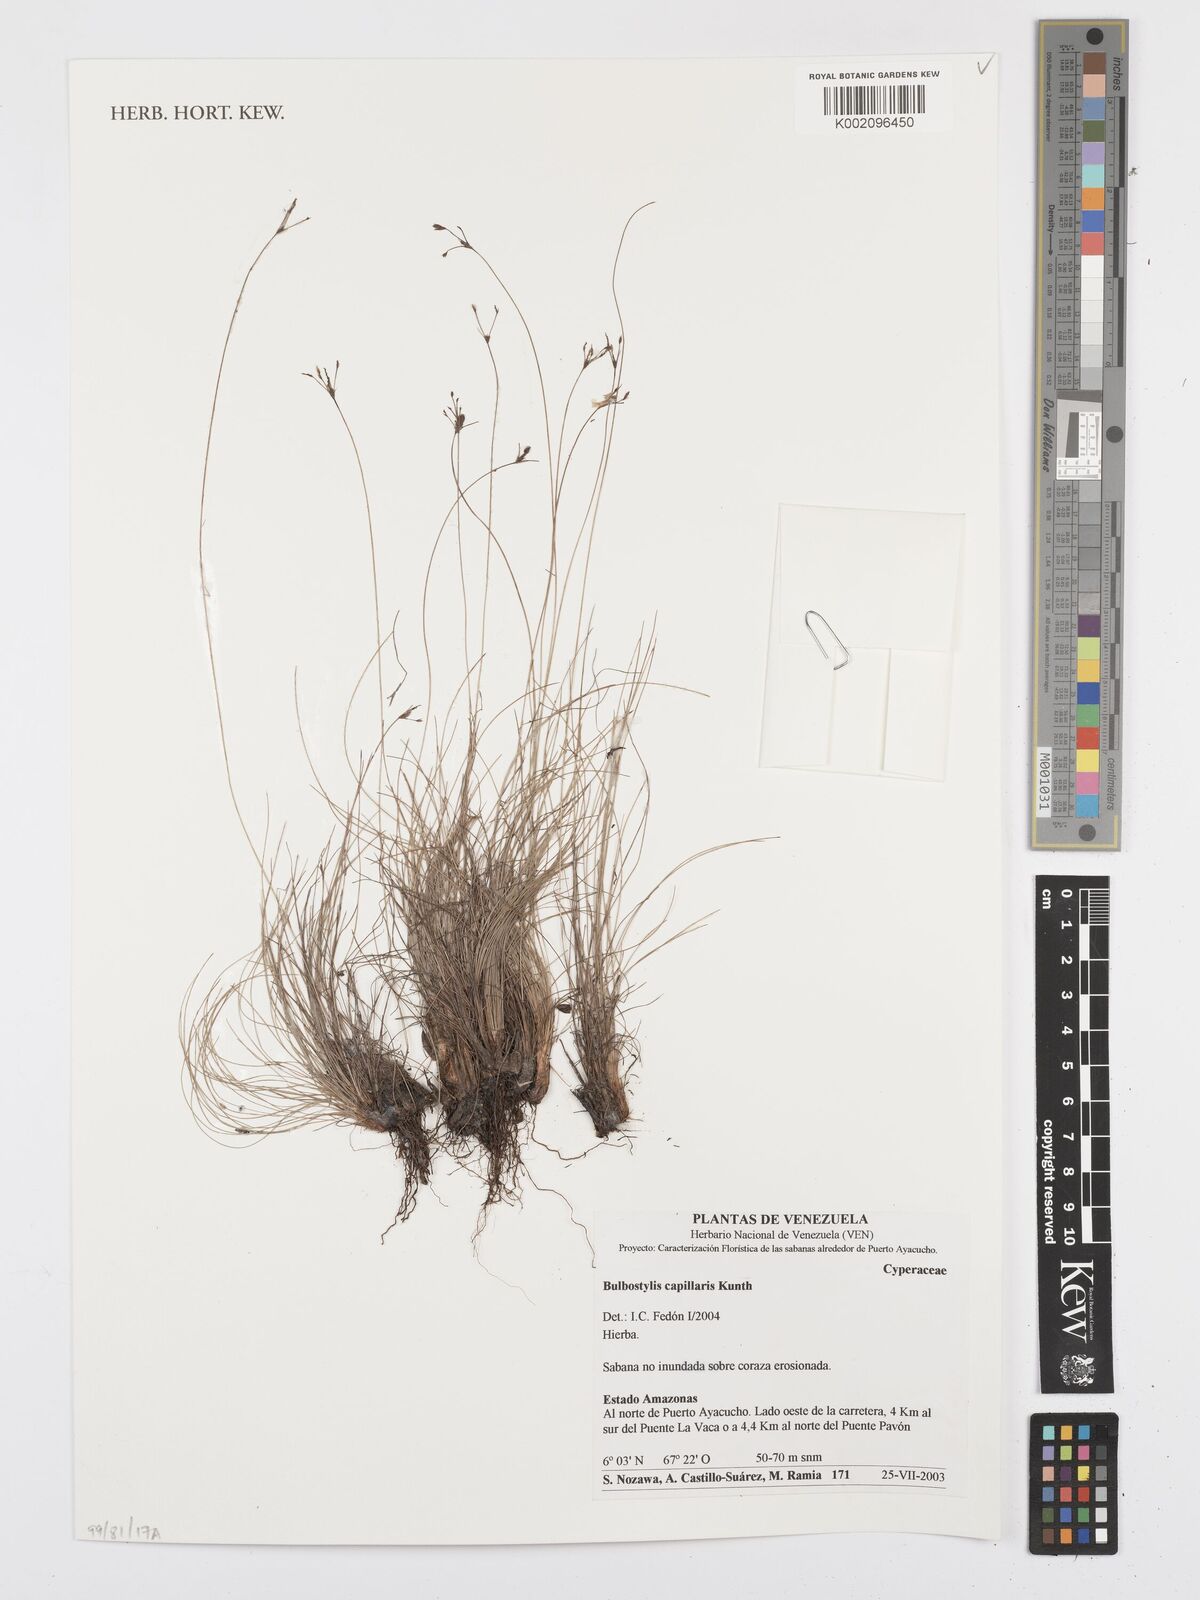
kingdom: Plantae
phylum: Tracheophyta
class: Liliopsida
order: Poales
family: Cyperaceae
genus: Bulbostylis
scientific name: Bulbostylis capillaris
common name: Densetuft hairsedge
